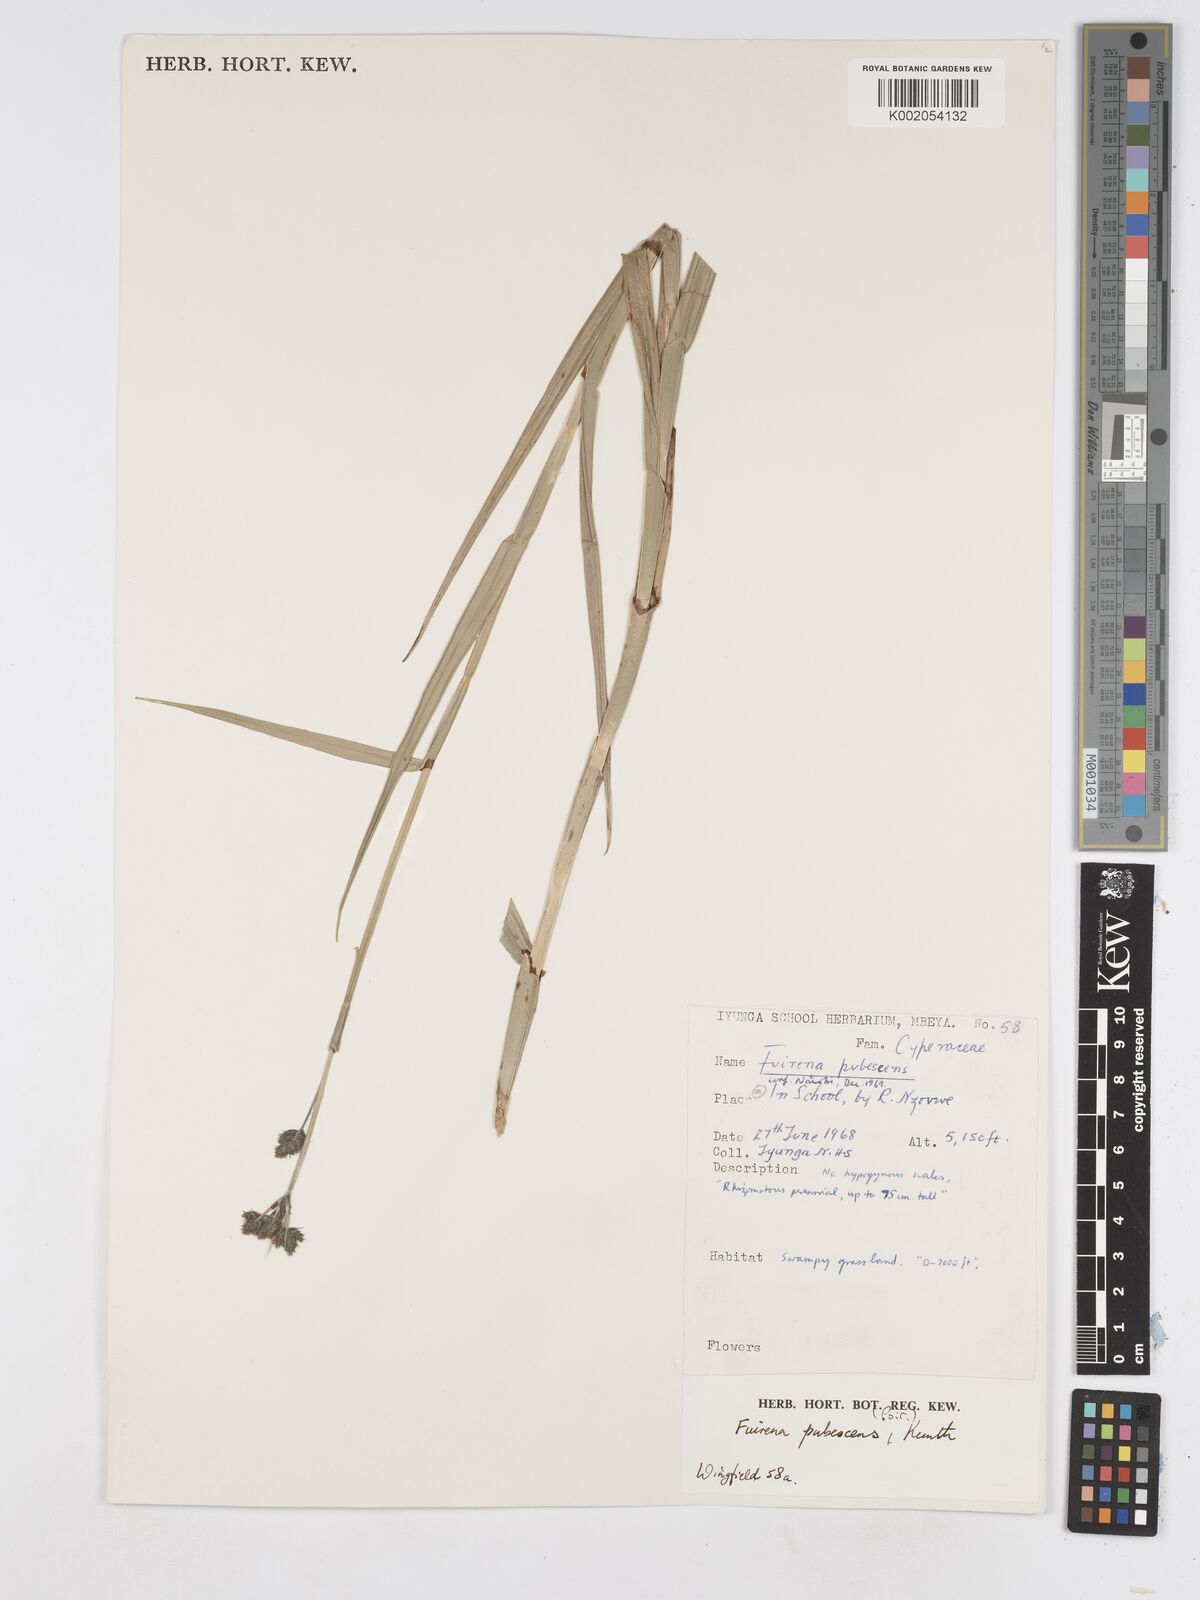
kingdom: Plantae
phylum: Tracheophyta
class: Liliopsida
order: Poales
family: Cyperaceae
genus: Fuirena
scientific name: Fuirena pubescens
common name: Hairy sedge
